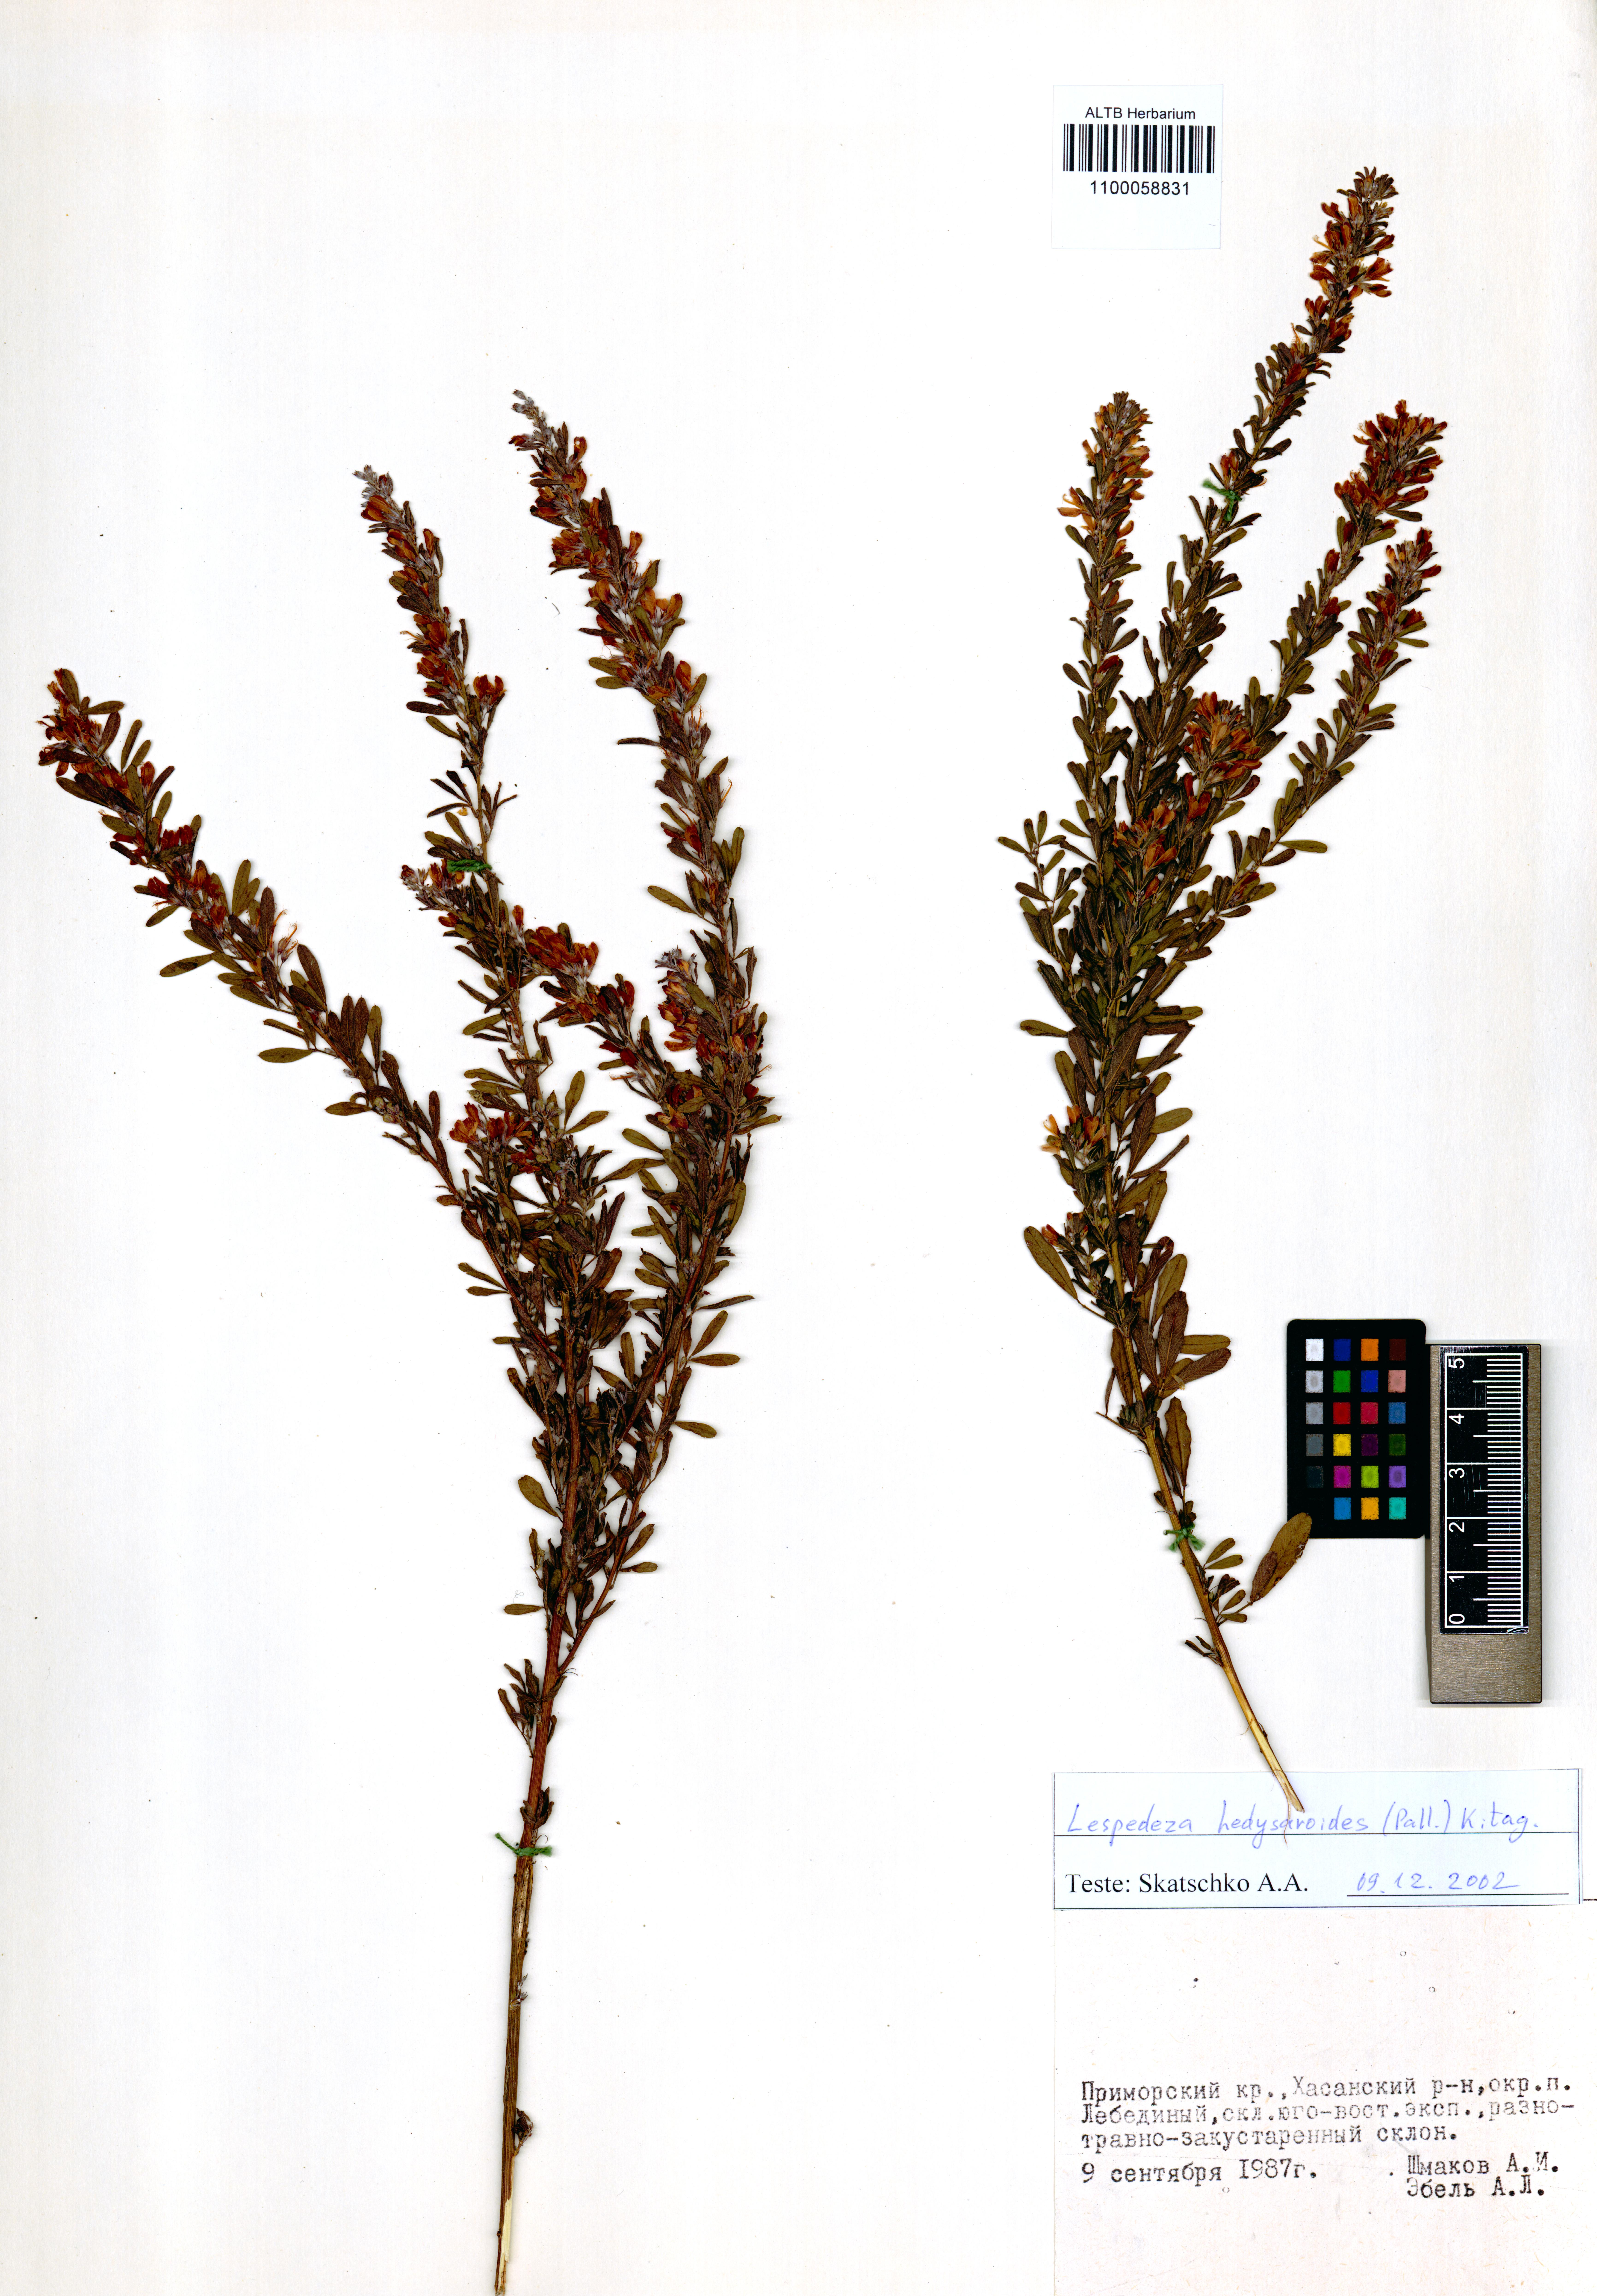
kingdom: Plantae
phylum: Tracheophyta
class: Magnoliopsida
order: Fabales
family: Fabaceae
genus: Lespedeza
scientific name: Lespedeza juncea
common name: Siberian lespedeza
